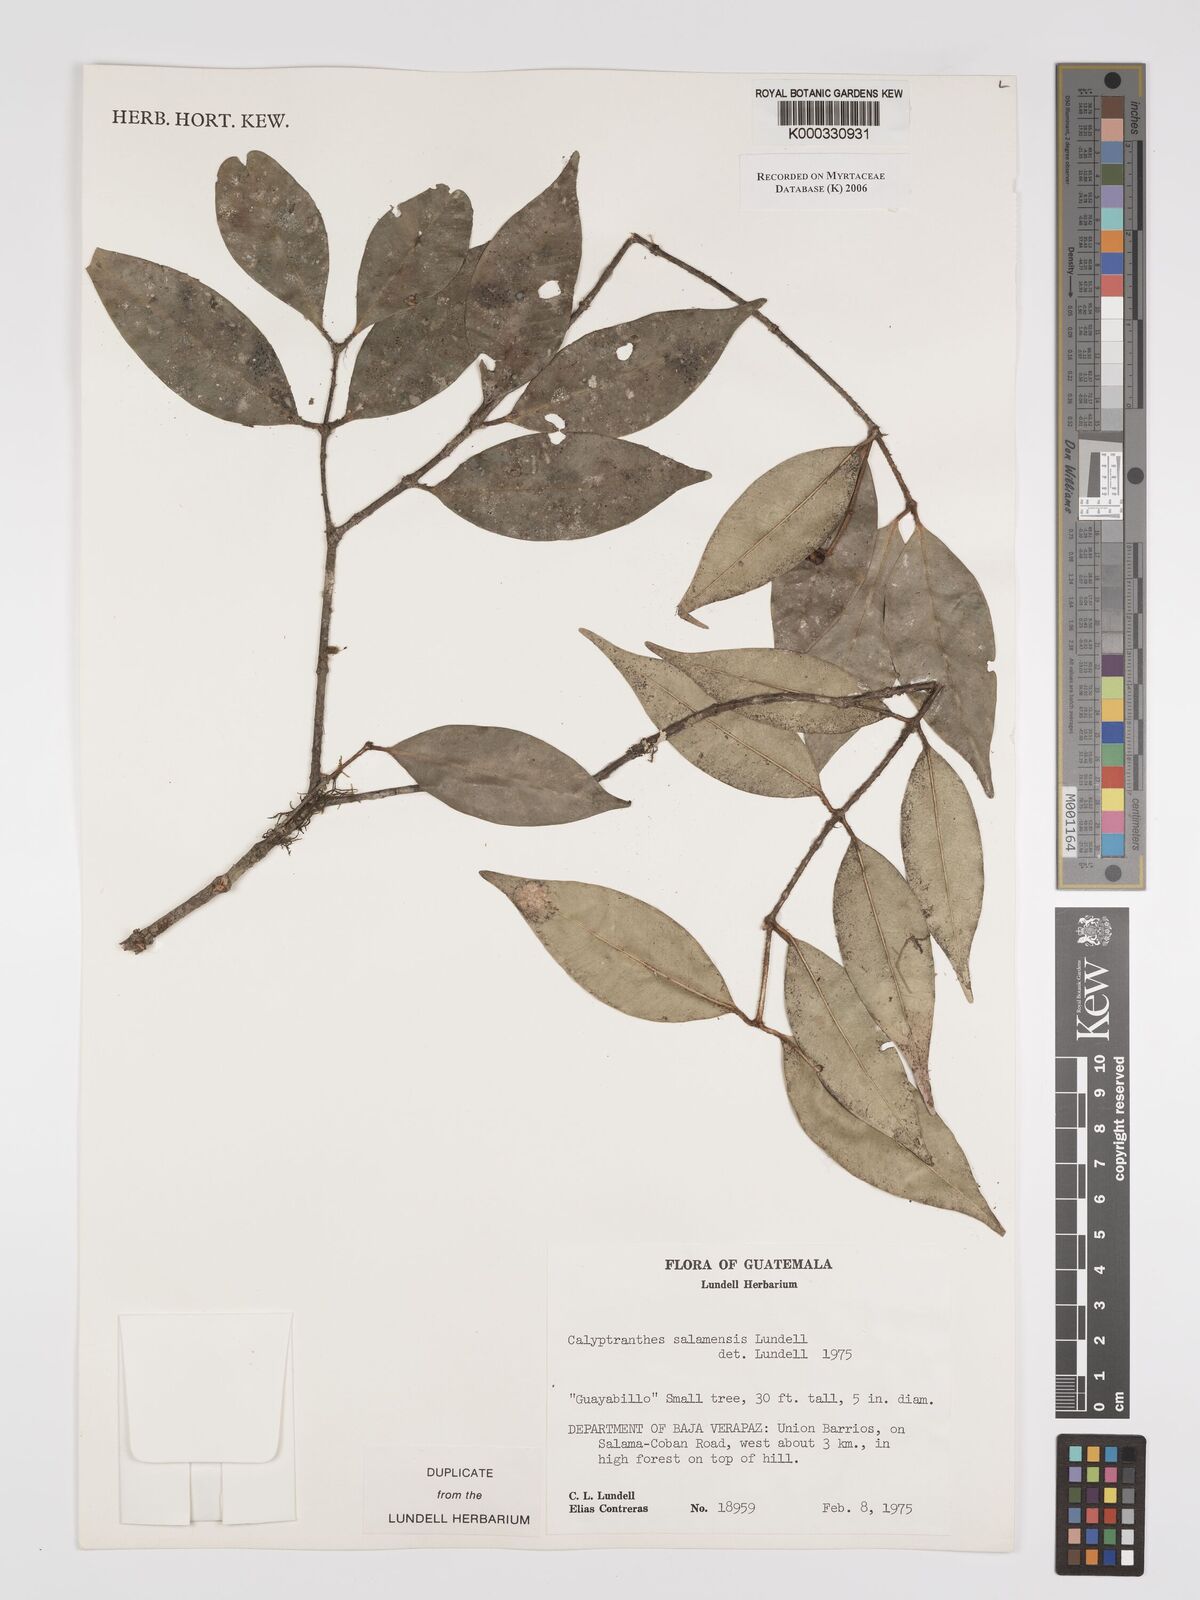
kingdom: Plantae
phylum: Tracheophyta
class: Magnoliopsida
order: Myrtales
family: Myrtaceae
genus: Myrcia
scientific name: Myrcia salamensis
